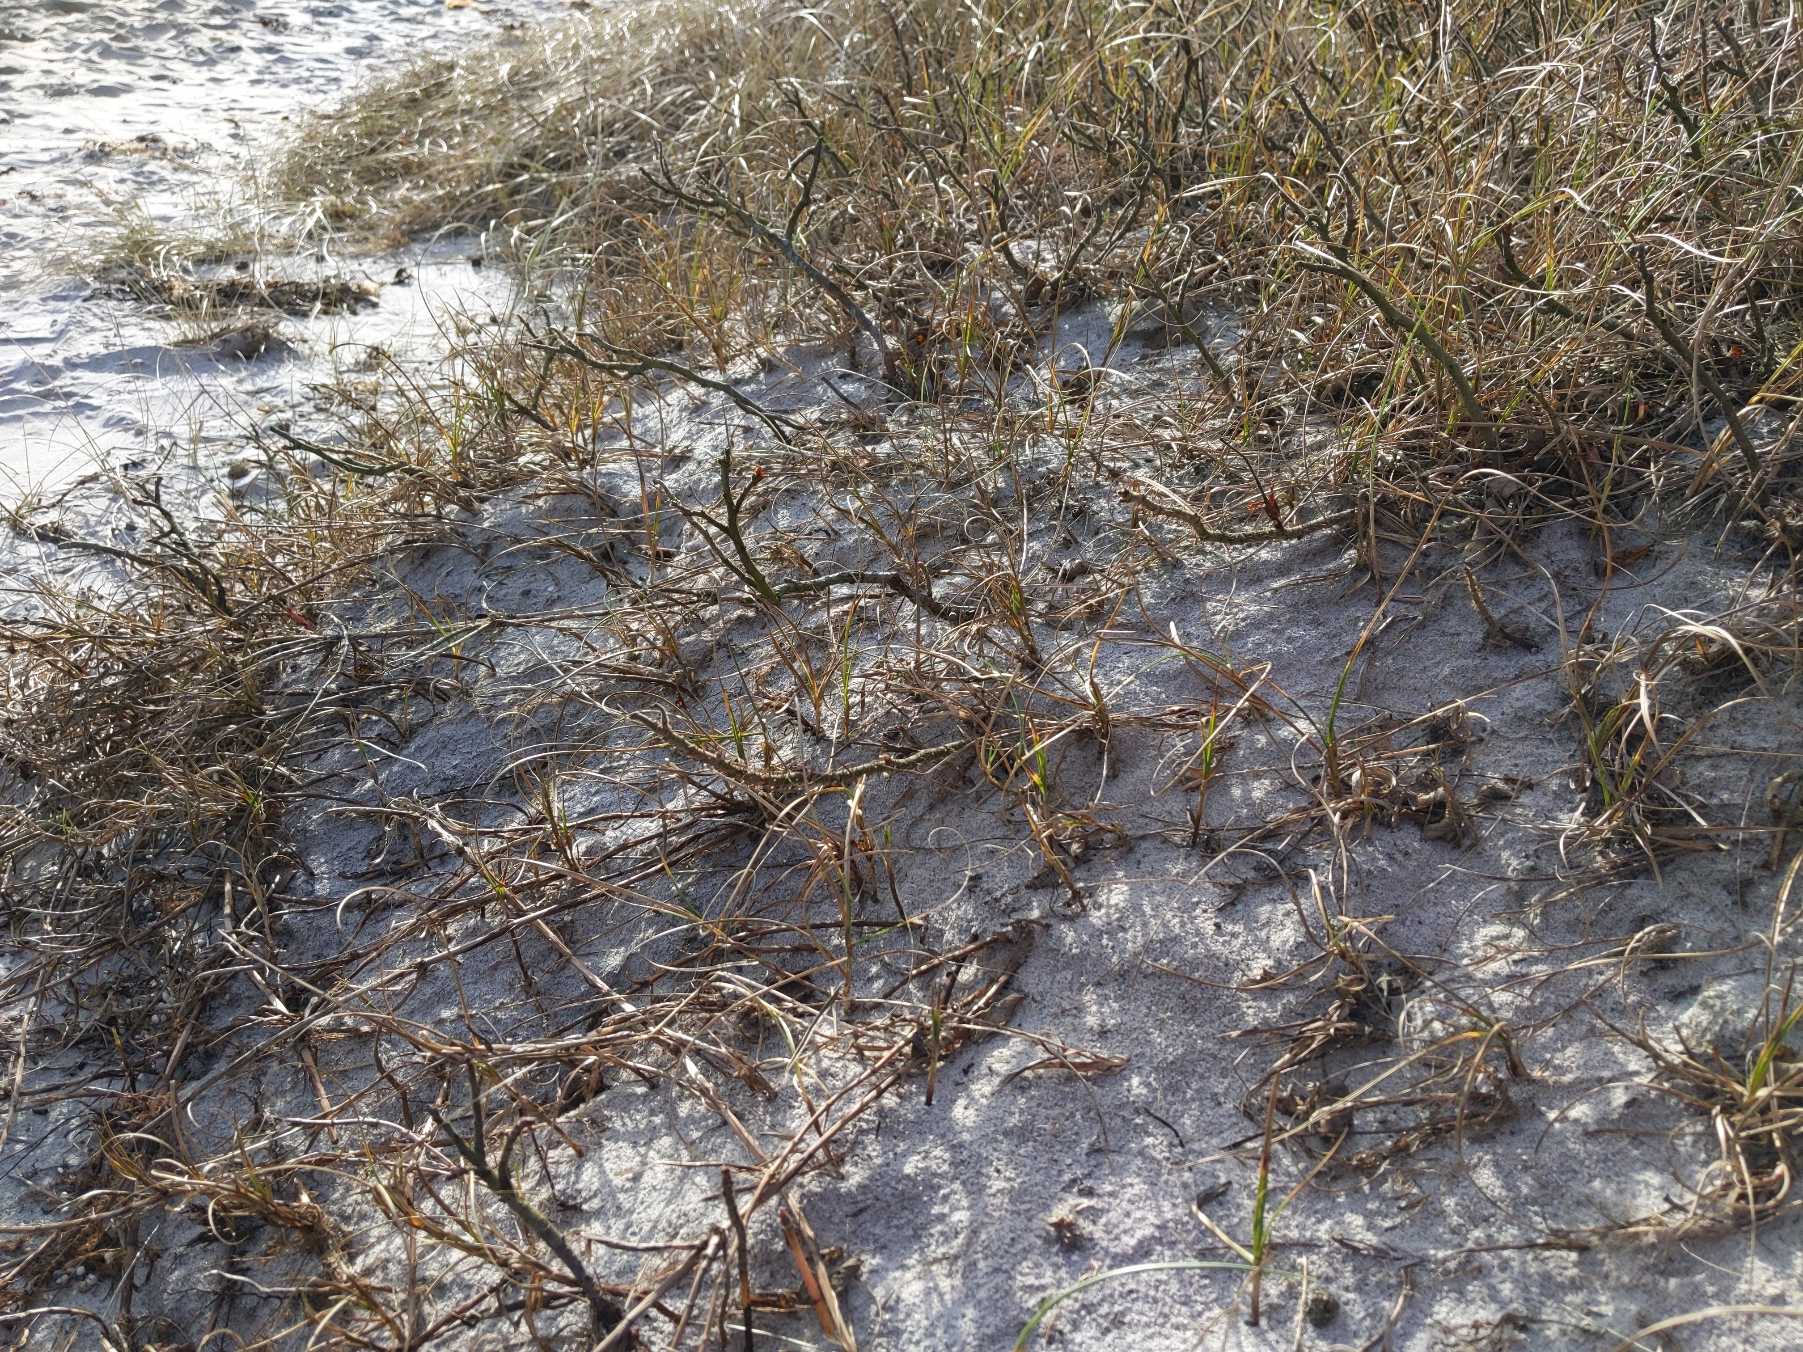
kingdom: Plantae
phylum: Tracheophyta
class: Liliopsida
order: Poales
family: Cyperaceae
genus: Carex
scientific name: Carex arenaria
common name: Sand-star
